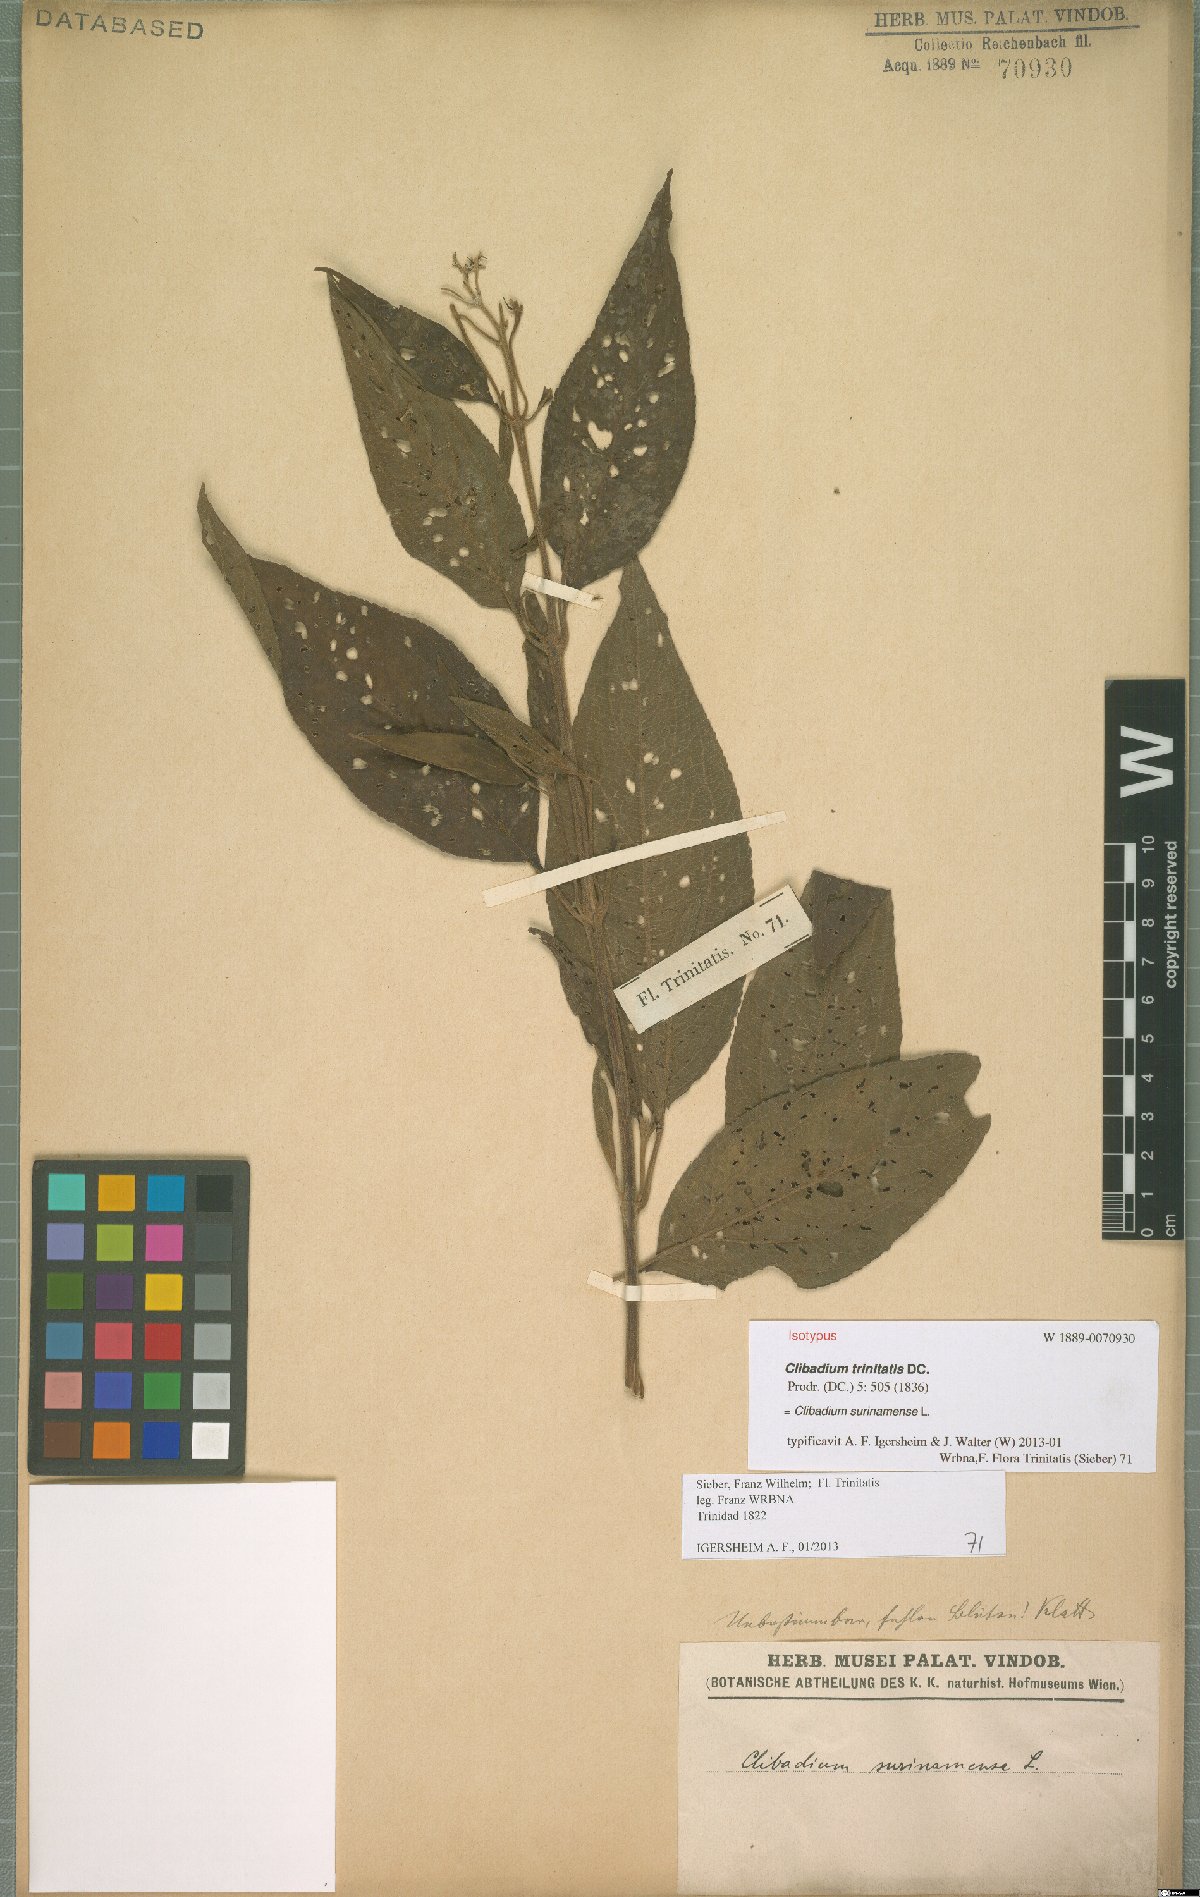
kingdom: Plantae
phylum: Tracheophyta
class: Magnoliopsida
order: Asterales
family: Asteraceae
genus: Clibadium
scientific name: Clibadium surinamense
